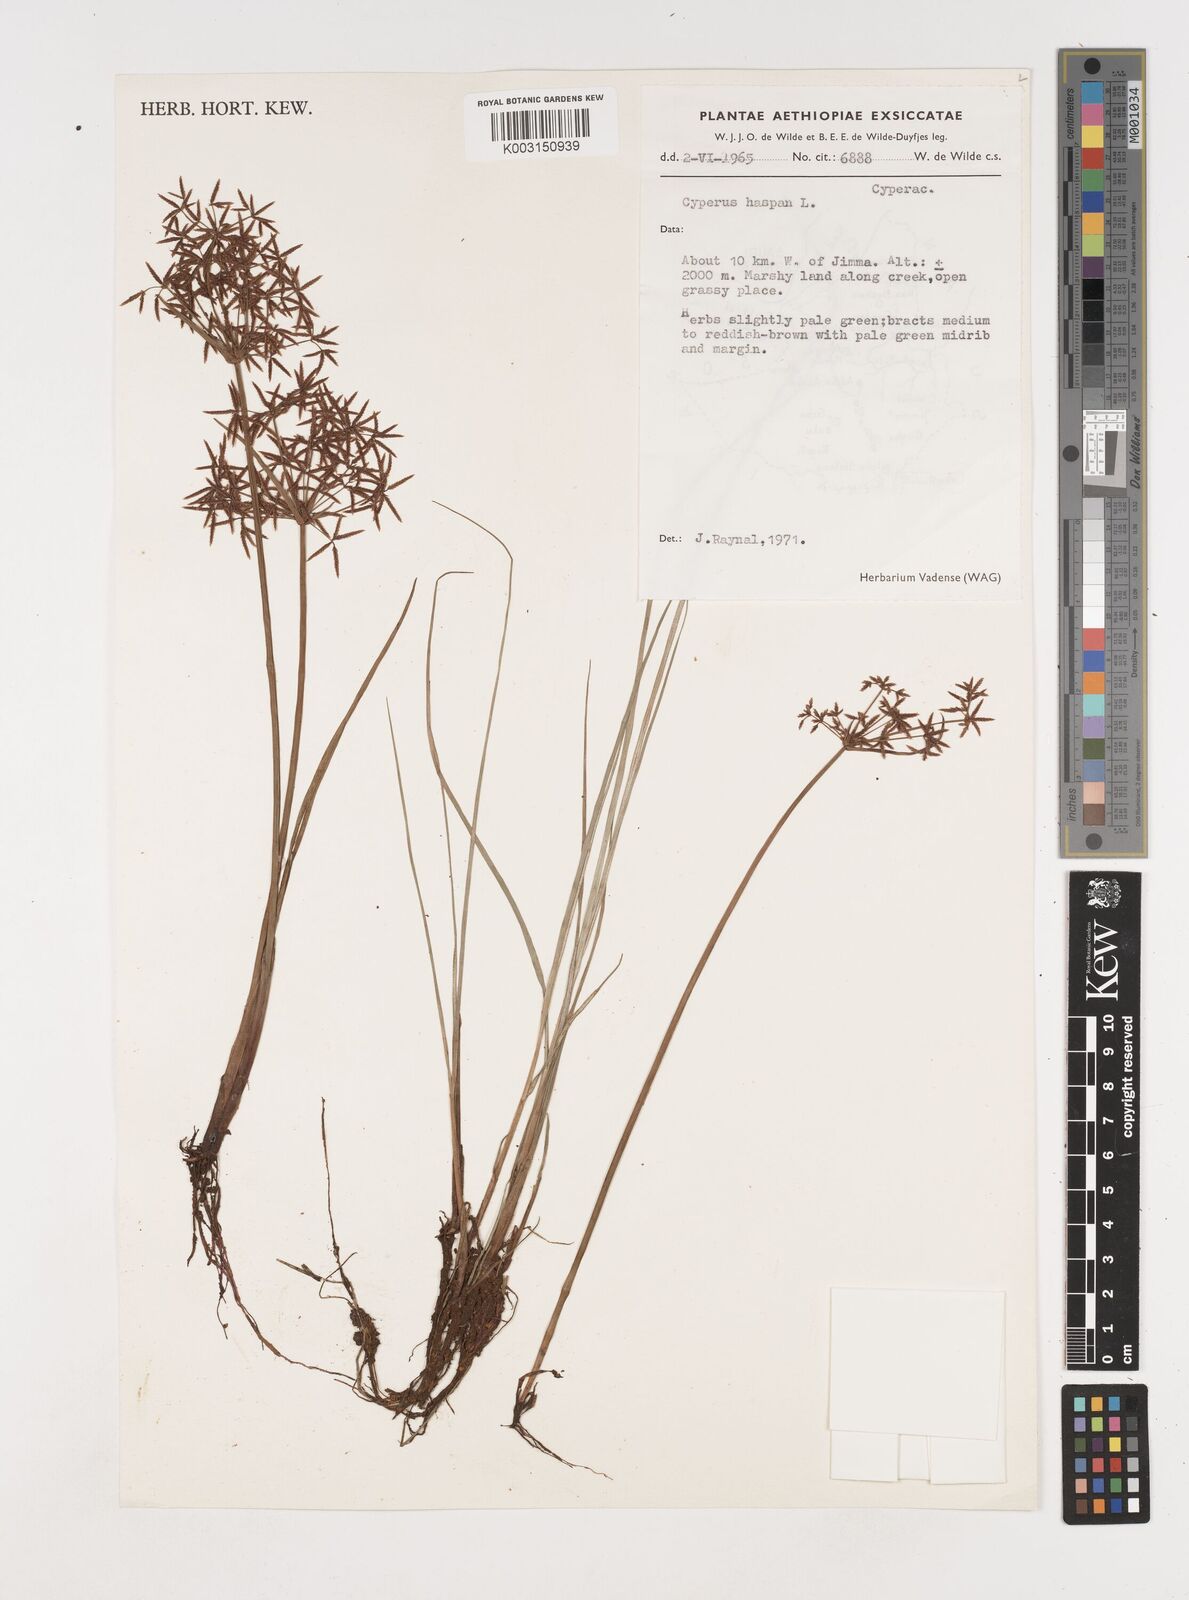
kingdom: Plantae
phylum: Tracheophyta
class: Liliopsida
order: Poales
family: Cyperaceae
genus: Cyperus
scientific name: Cyperus haspan
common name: Haspan flatsedge
